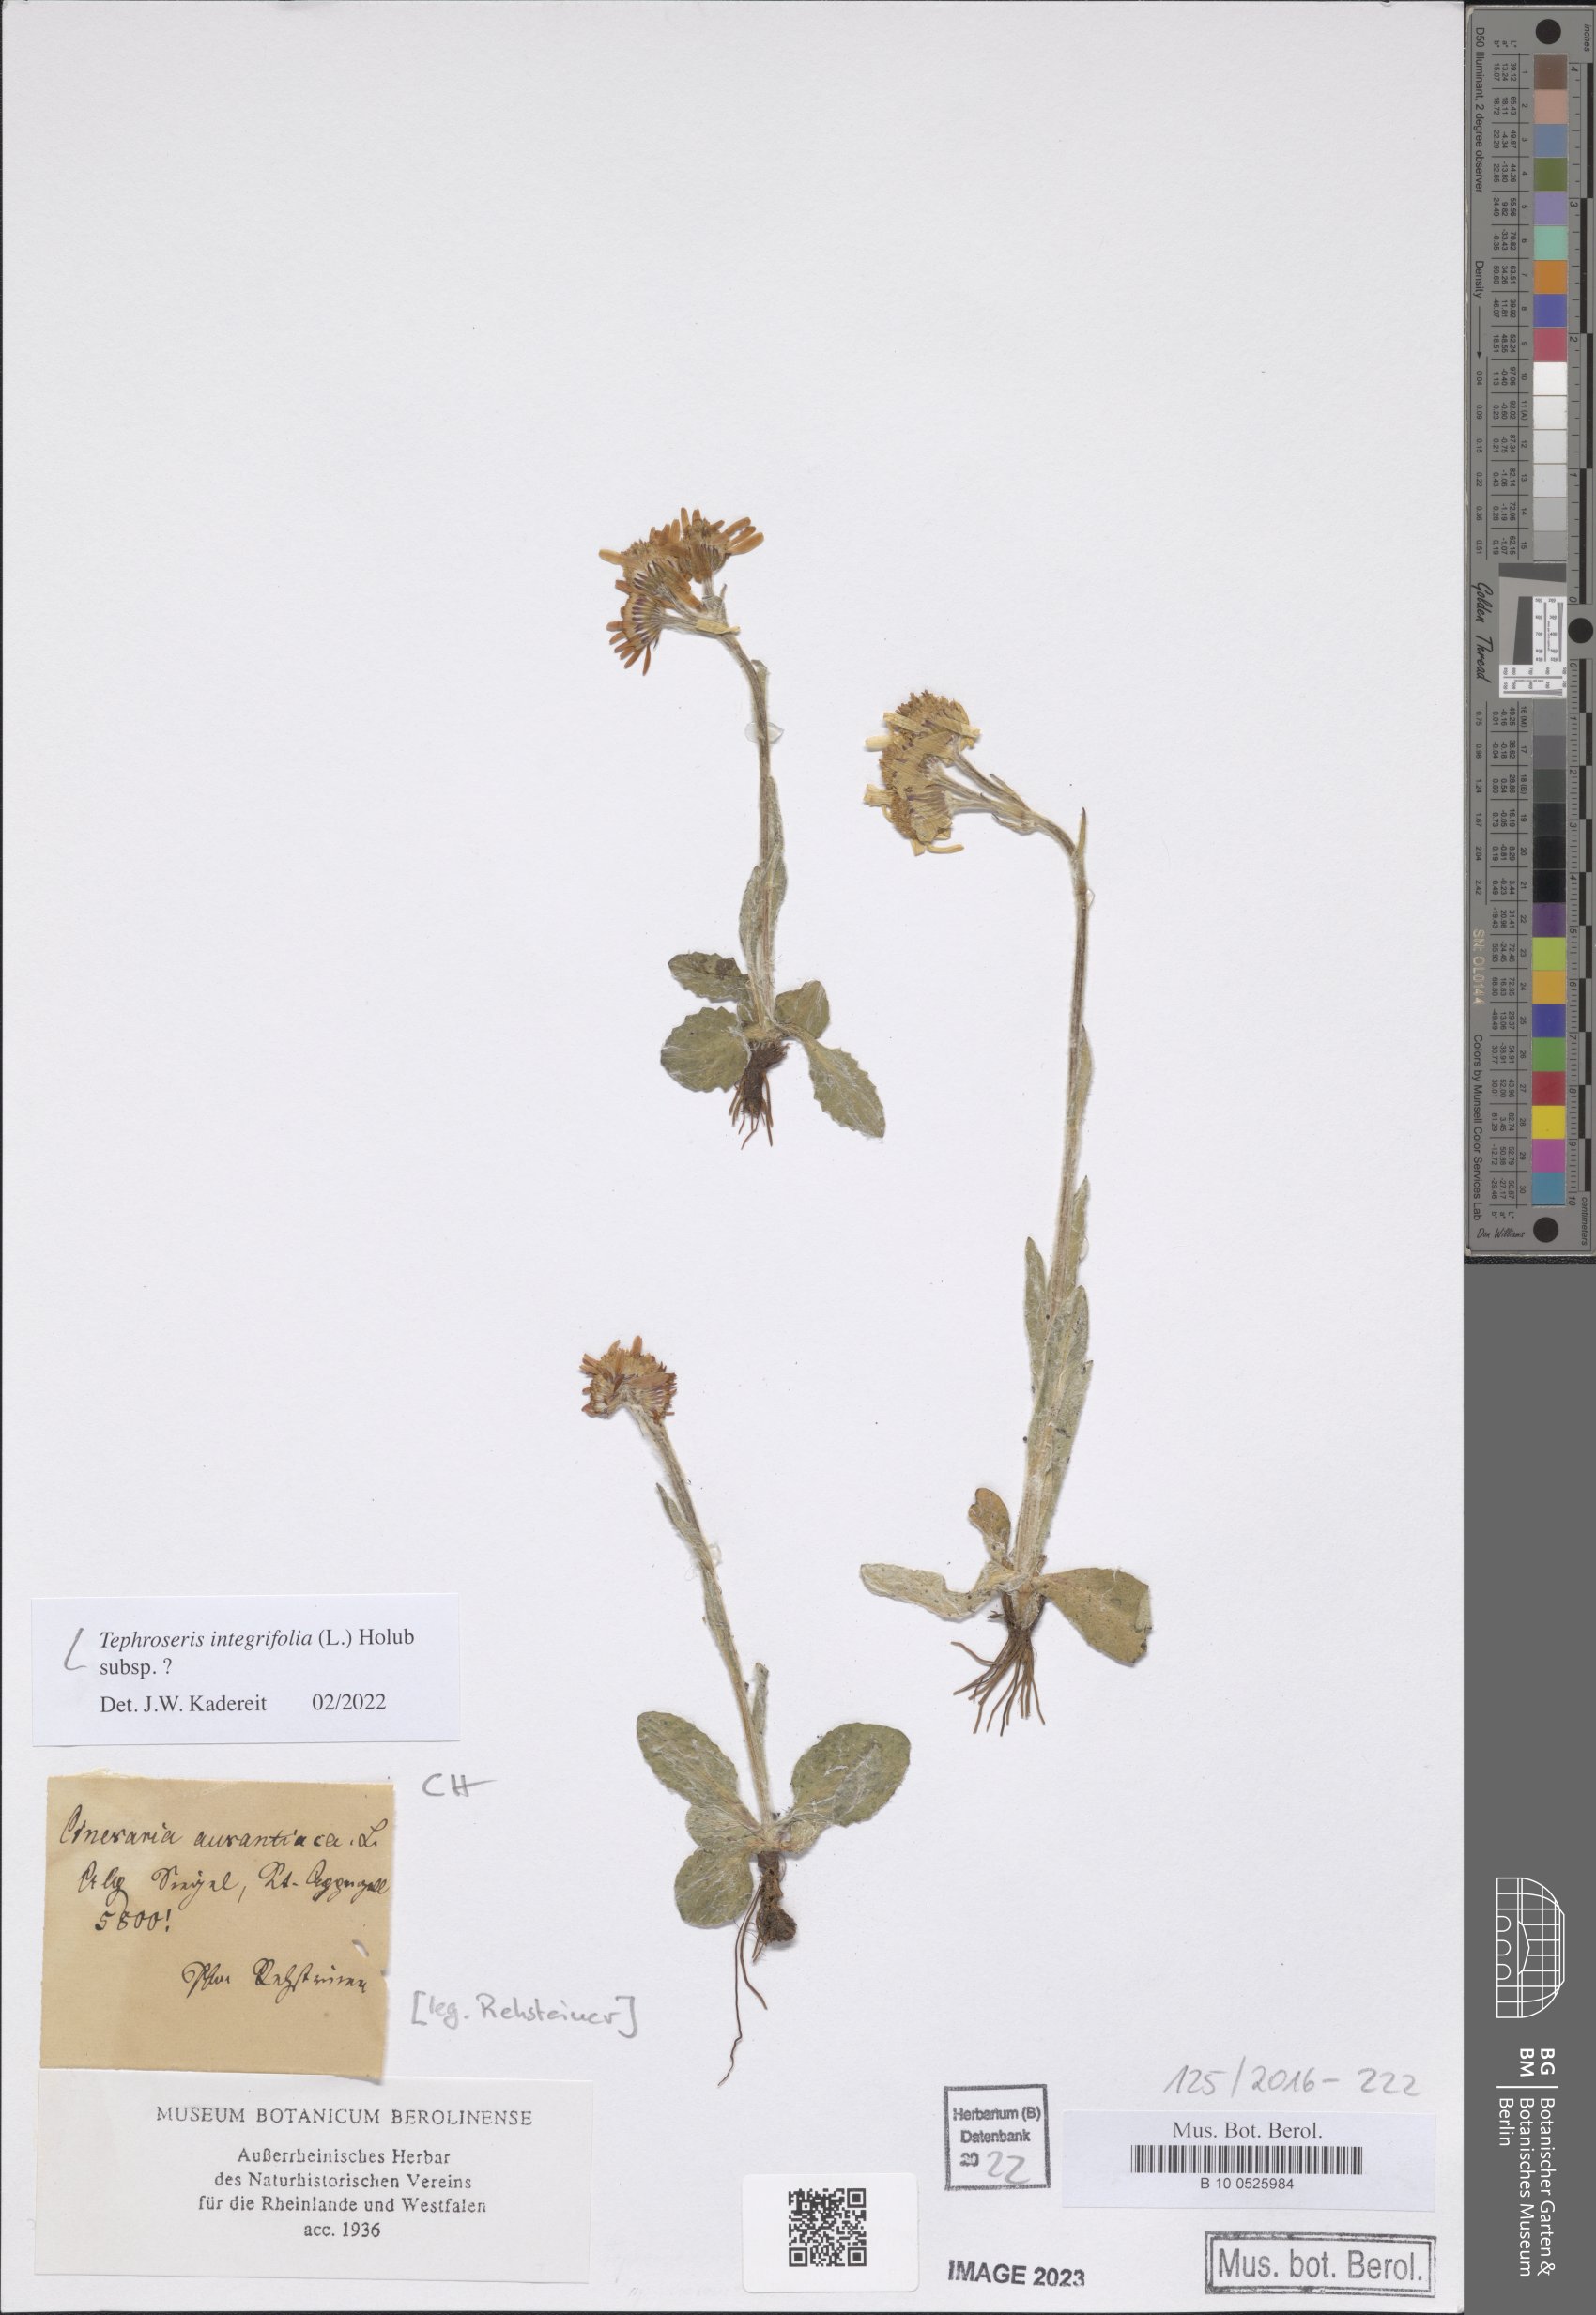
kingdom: Plantae
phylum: Tracheophyta
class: Magnoliopsida
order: Asterales
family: Asteraceae
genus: Tephroseris
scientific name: Tephroseris integrifolia
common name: Field fleawort
